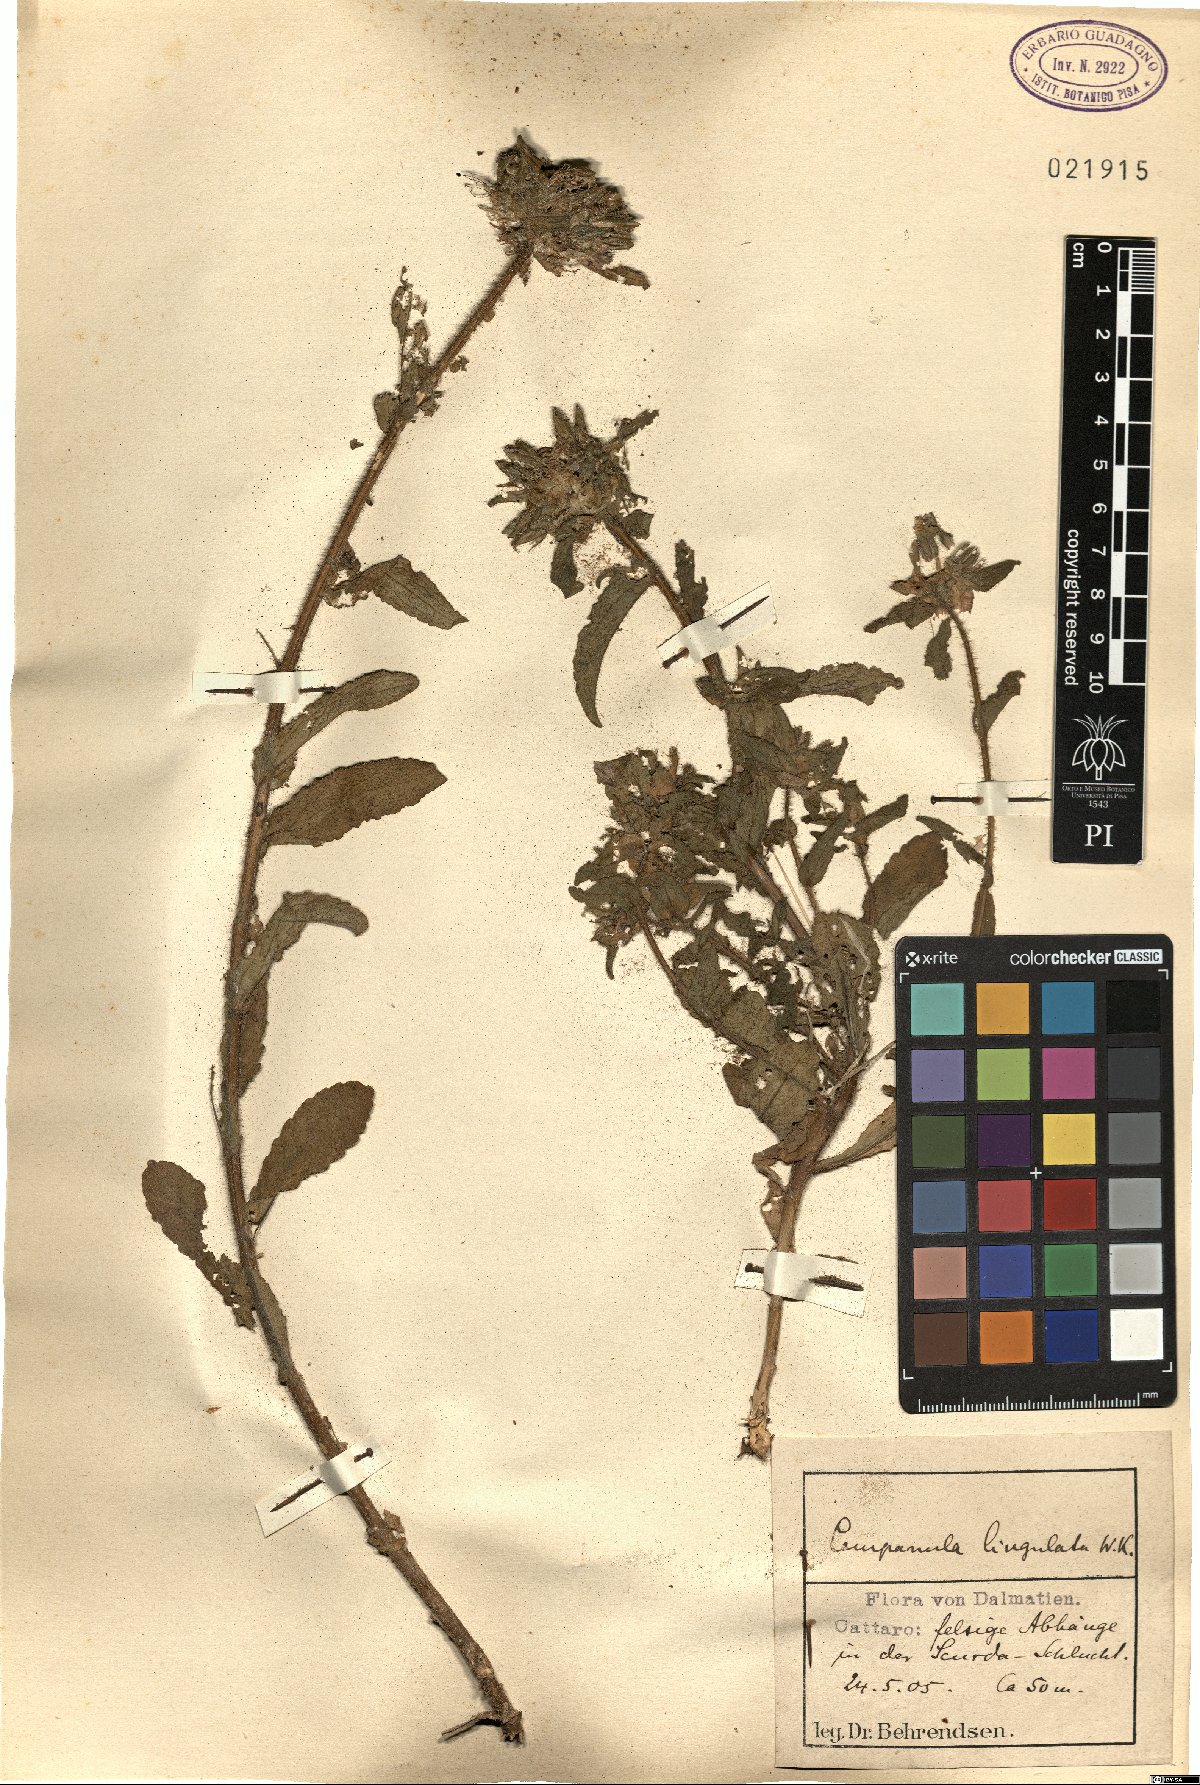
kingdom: Plantae
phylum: Tracheophyta
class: Magnoliopsida
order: Asterales
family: Campanulaceae
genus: Campanula
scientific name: Campanula lingulata
